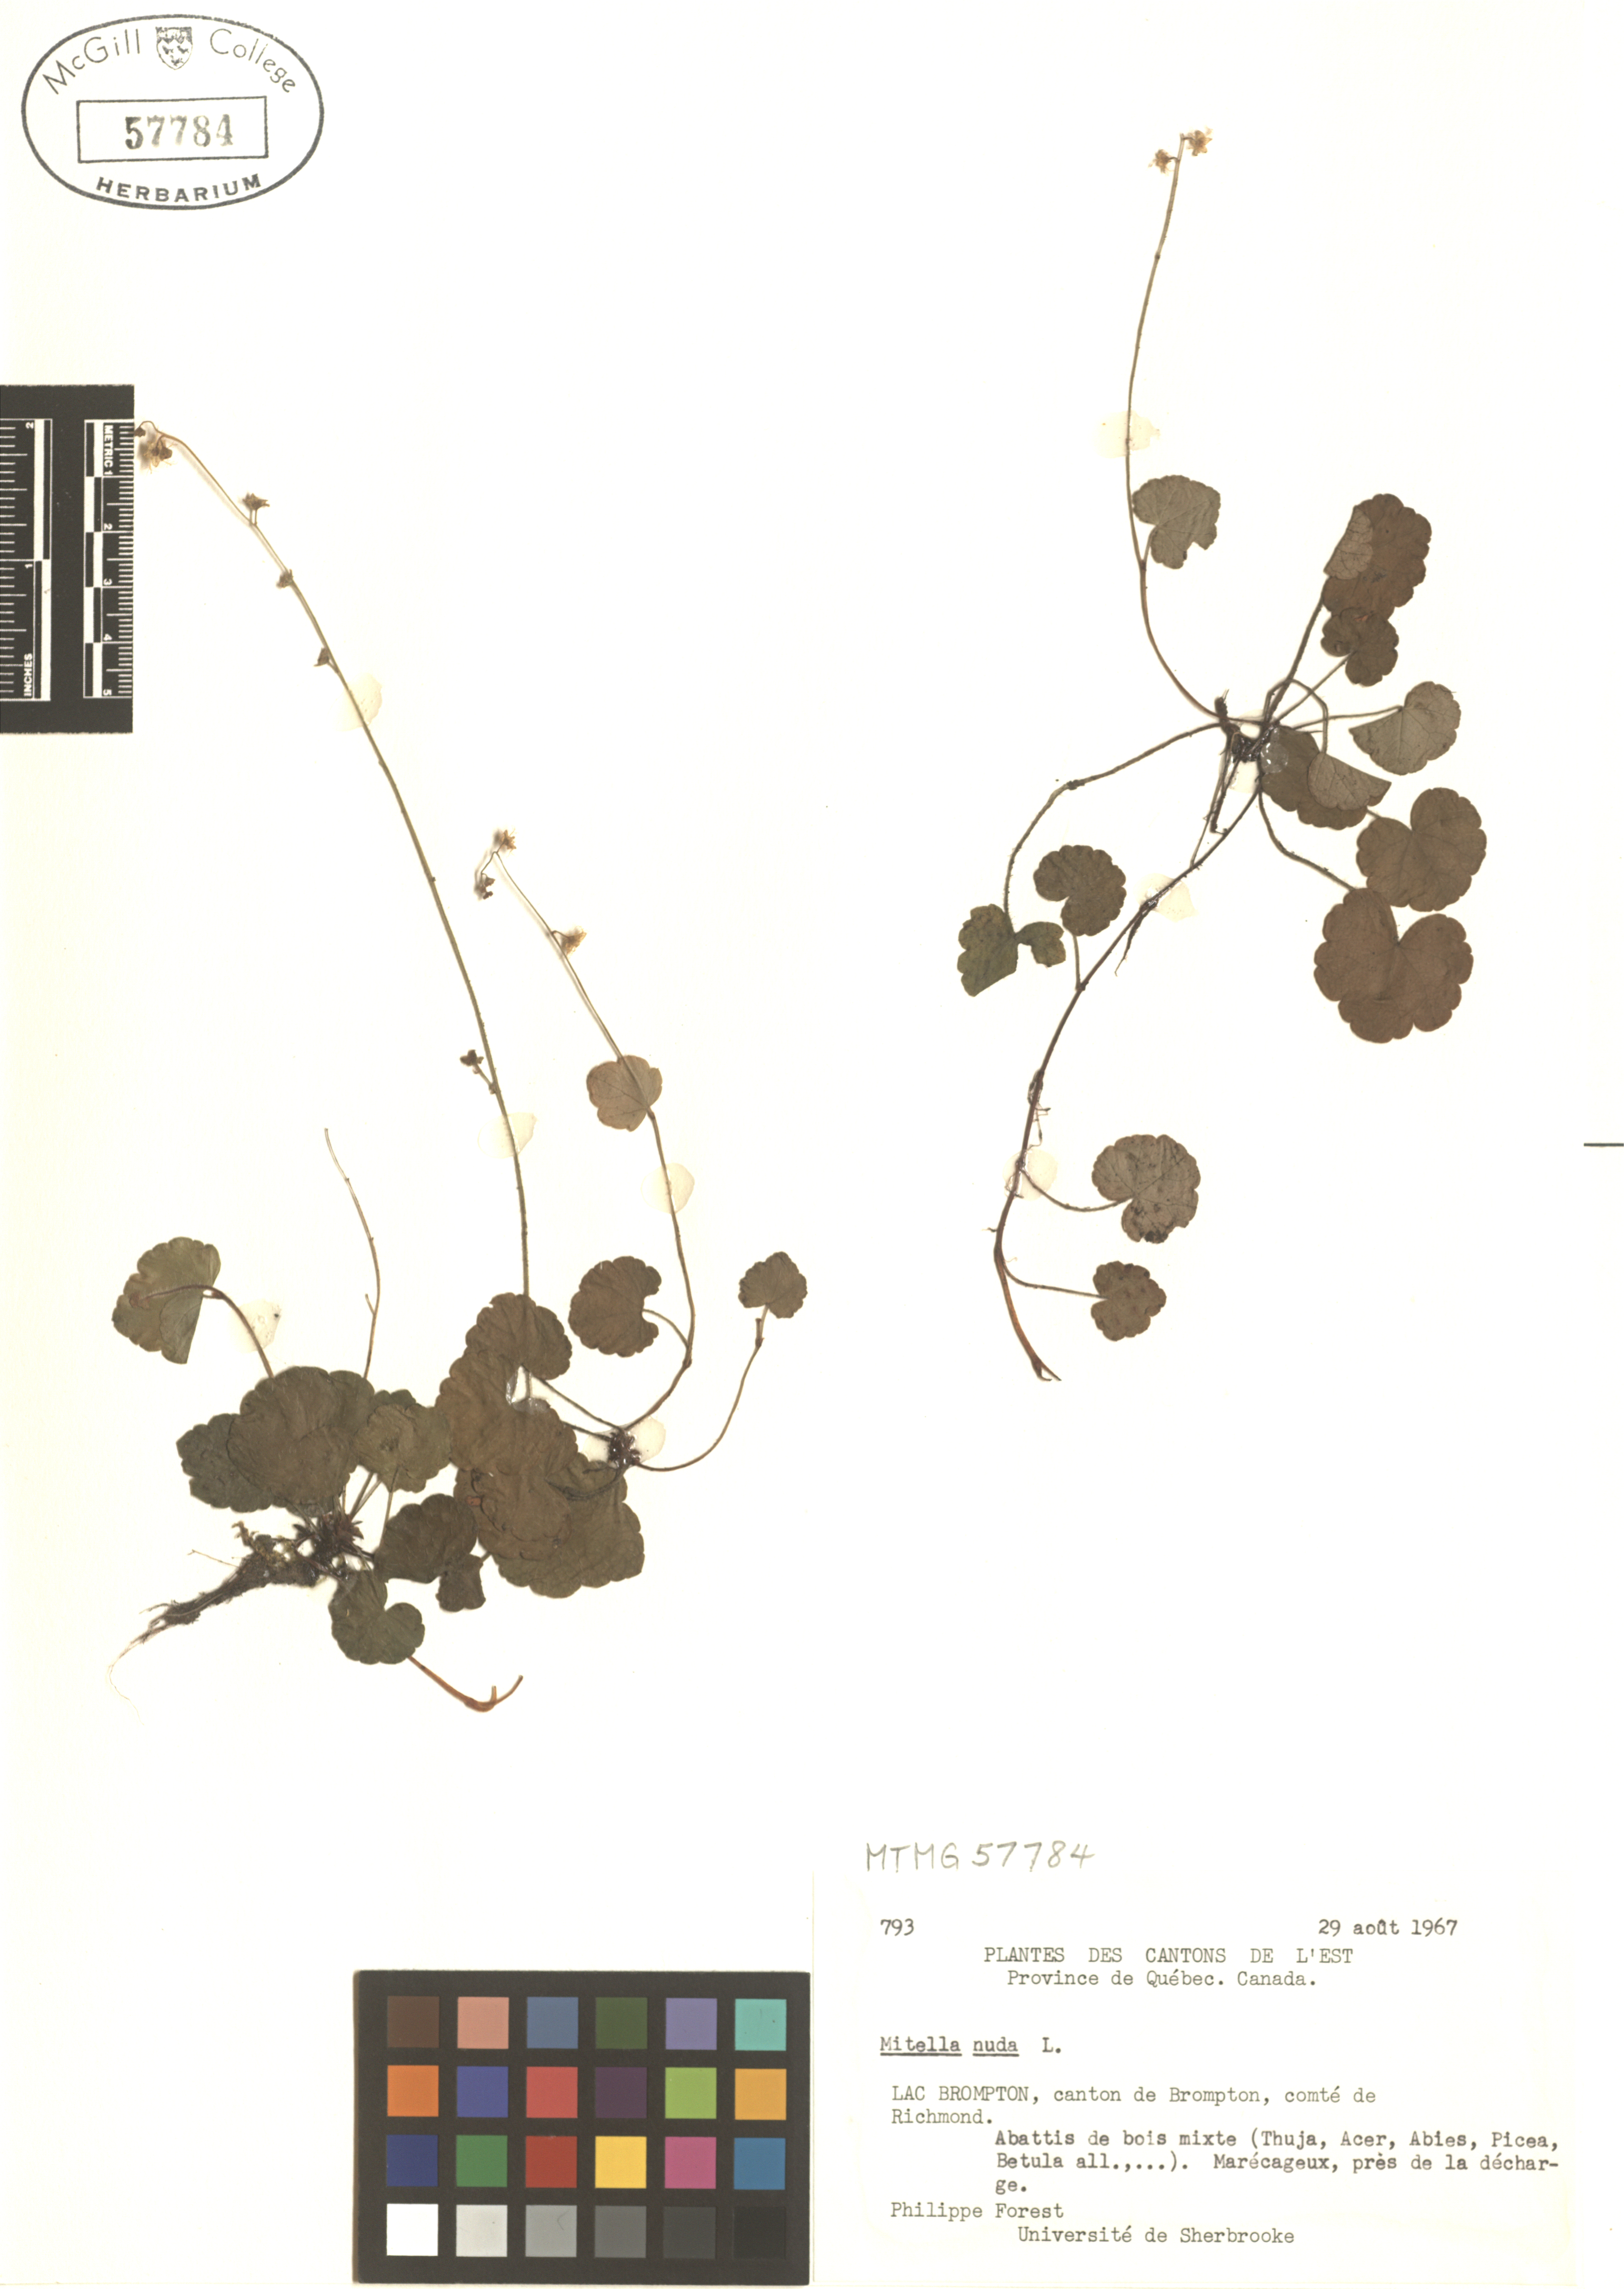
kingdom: Plantae
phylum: Tracheophyta
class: Magnoliopsida
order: Saxifragales
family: Saxifragaceae
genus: Mitella
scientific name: Mitella nuda
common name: Bare-stemmed bishop's-cap
